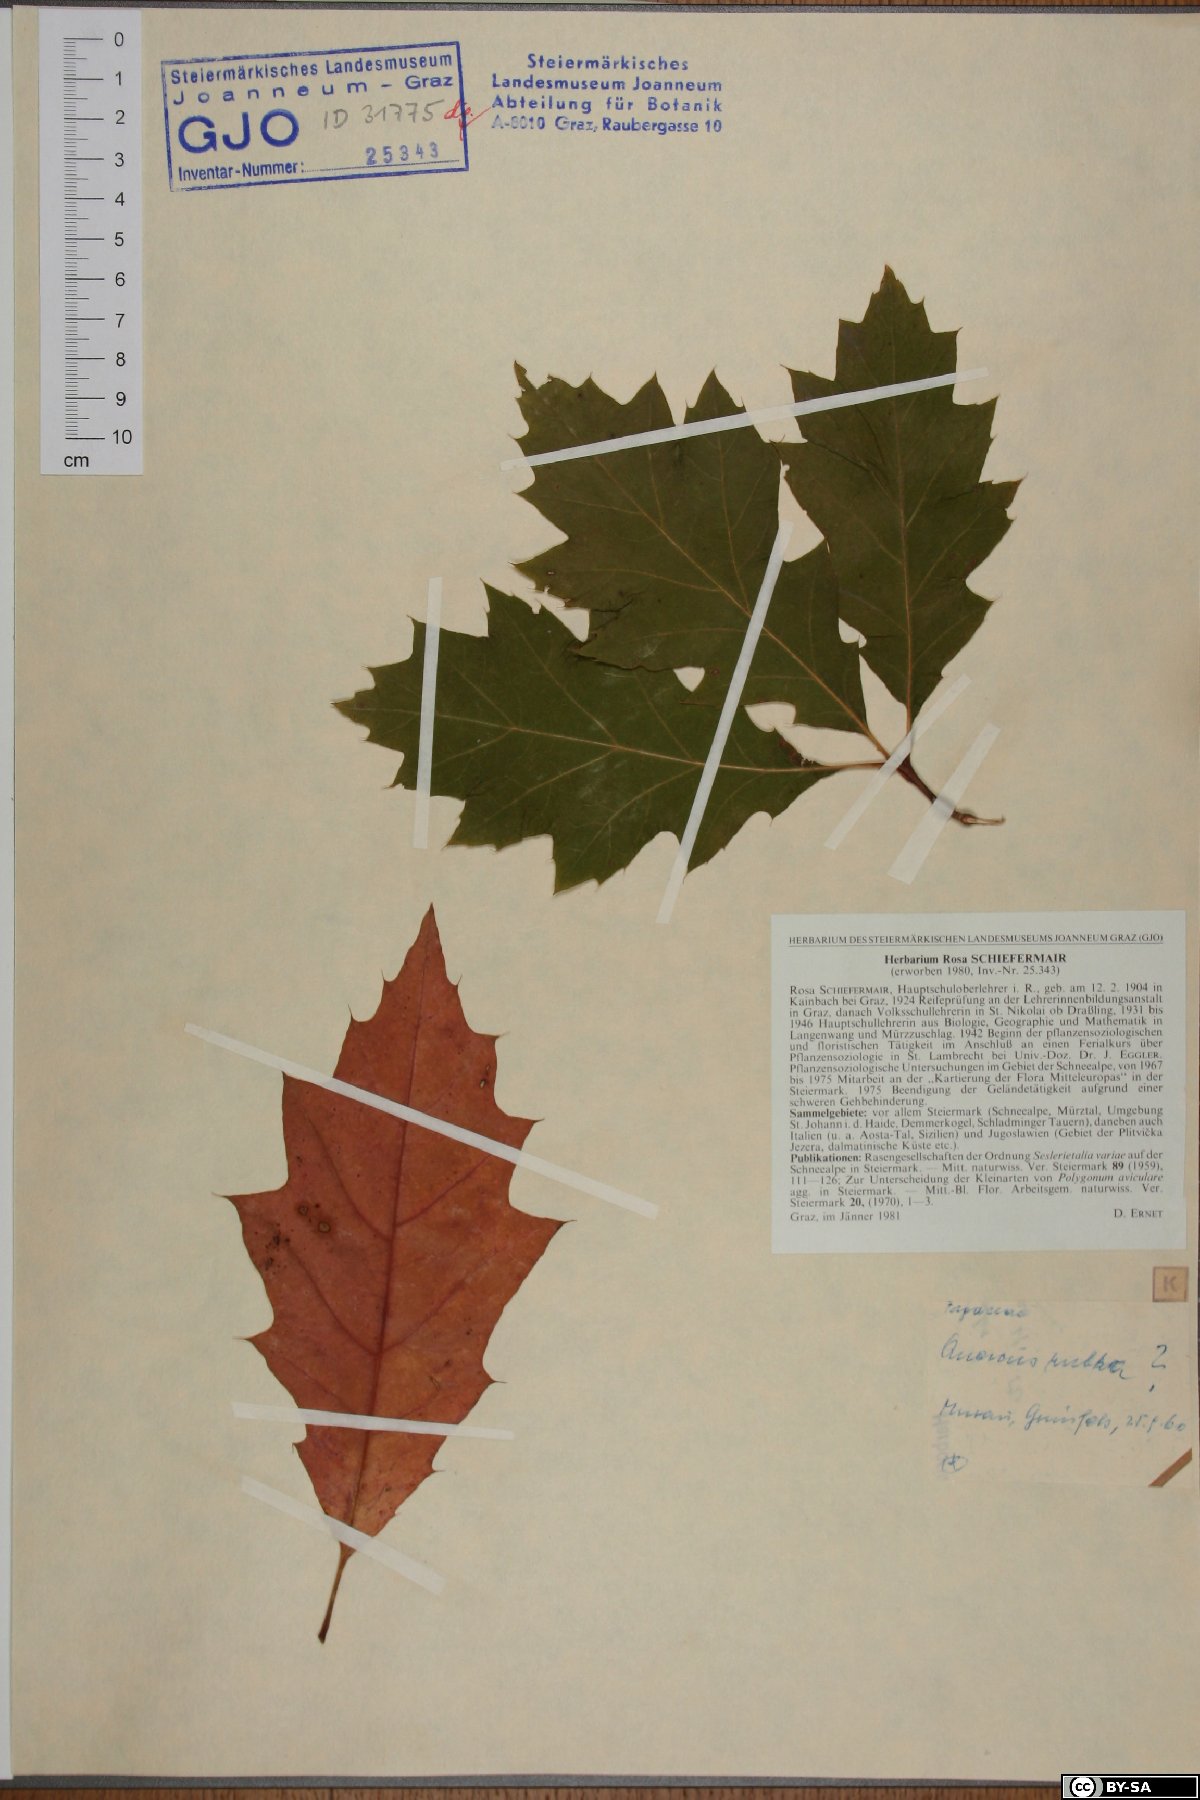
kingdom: Plantae
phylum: Tracheophyta
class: Magnoliopsida
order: Fagales
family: Fagaceae
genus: Quercus
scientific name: Quercus rubra
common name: Red oak
